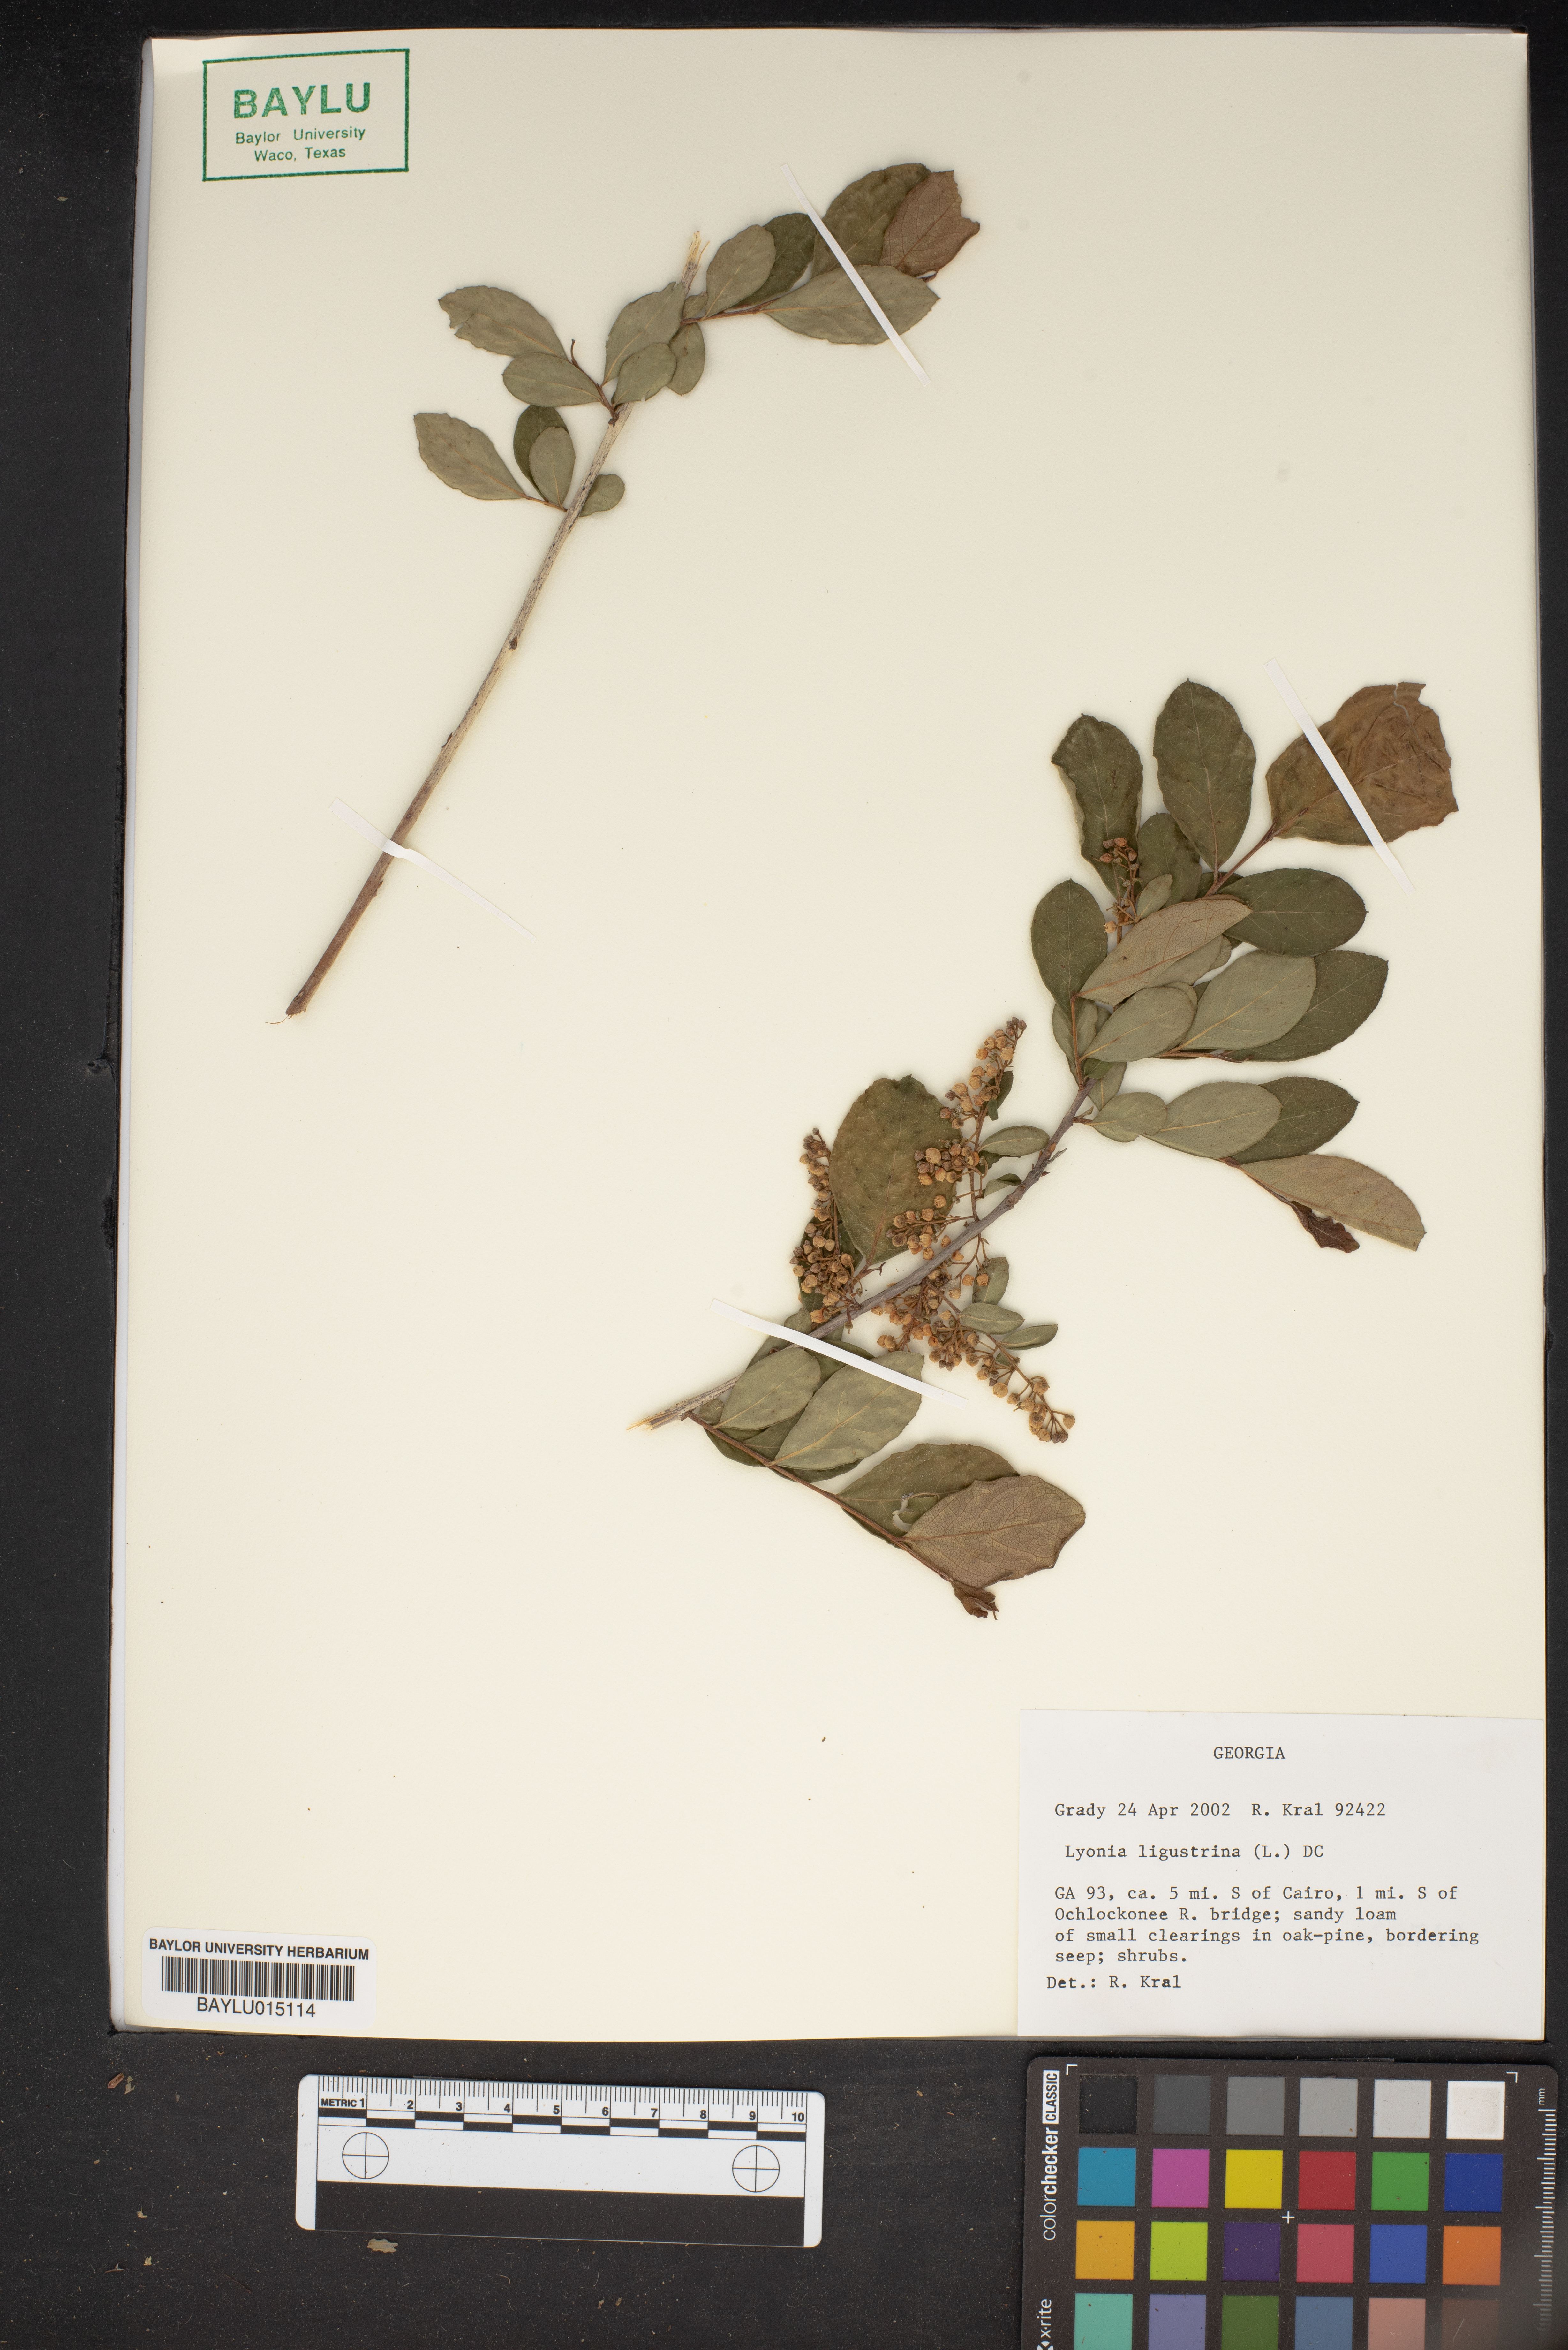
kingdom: Plantae
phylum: Tracheophyta
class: Magnoliopsida
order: Ericales
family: Ericaceae
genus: Lyonia
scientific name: Lyonia ligustrina
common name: Maleberry
